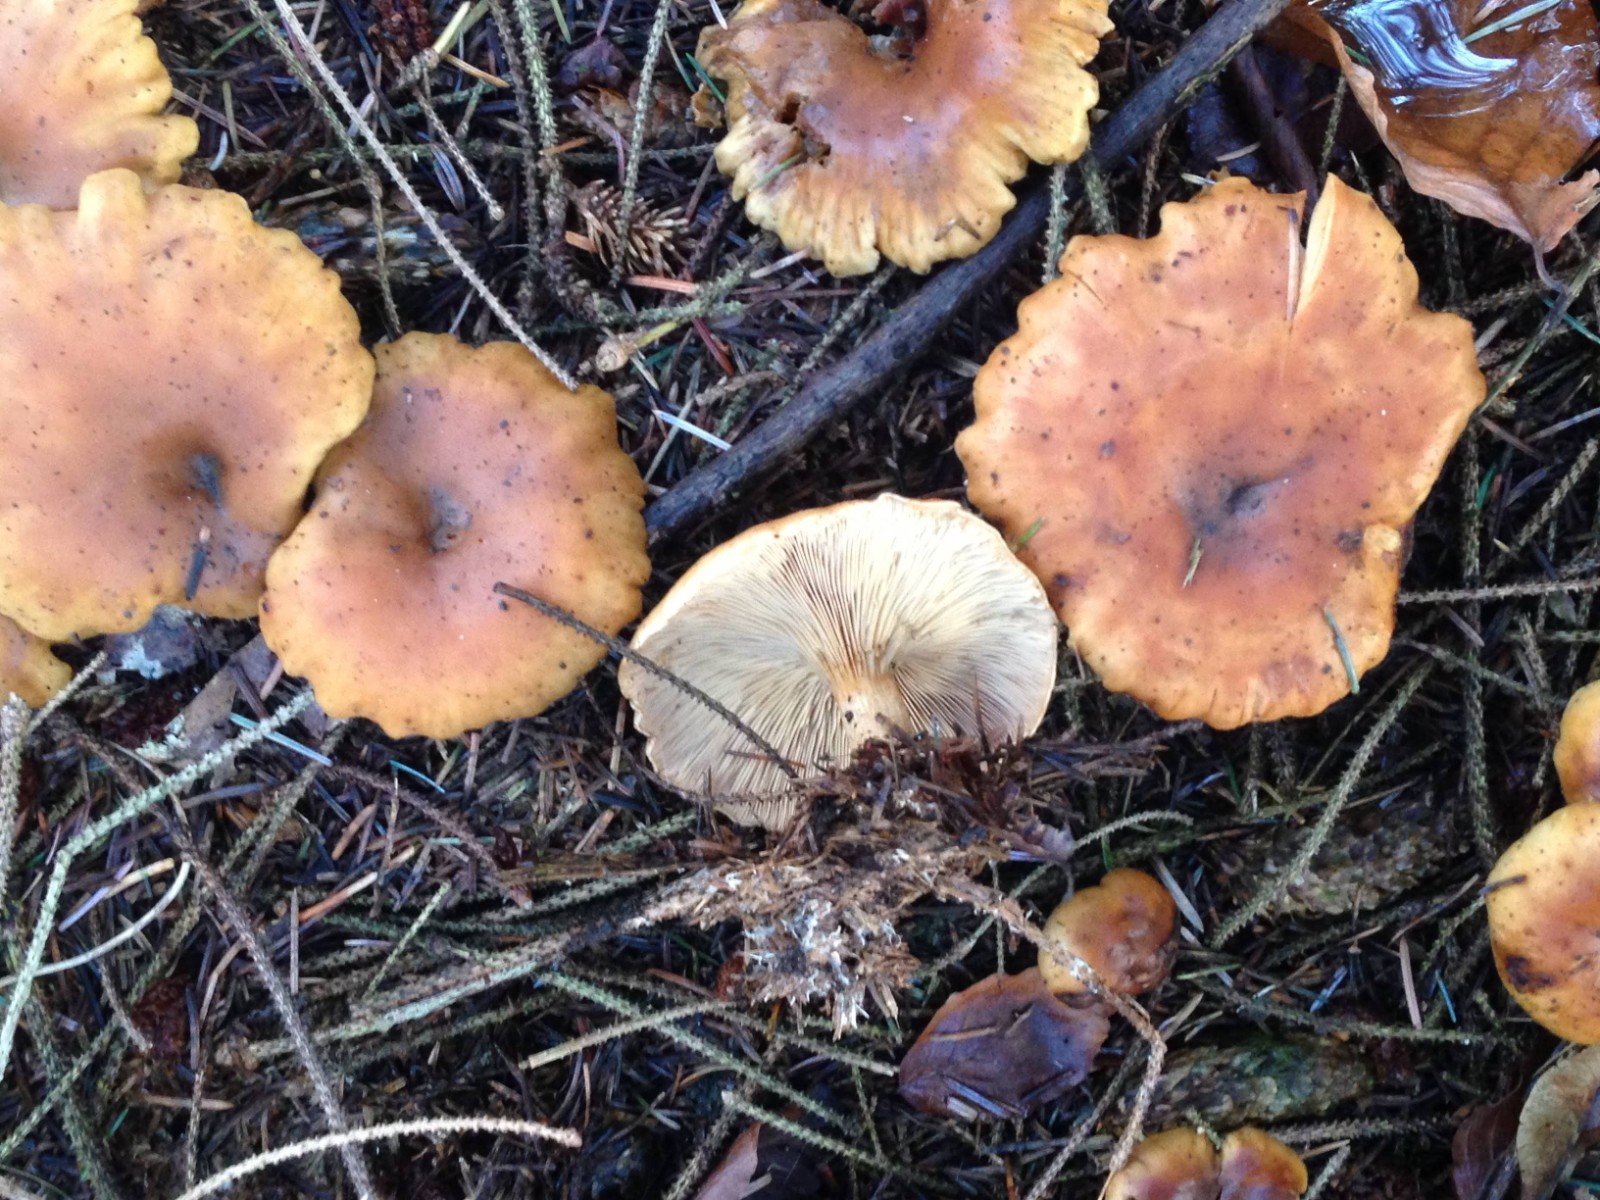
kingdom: Fungi
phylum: Basidiomycota
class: Agaricomycetes
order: Agaricales
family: Tricholomataceae
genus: Paralepista
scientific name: Paralepista flaccida
